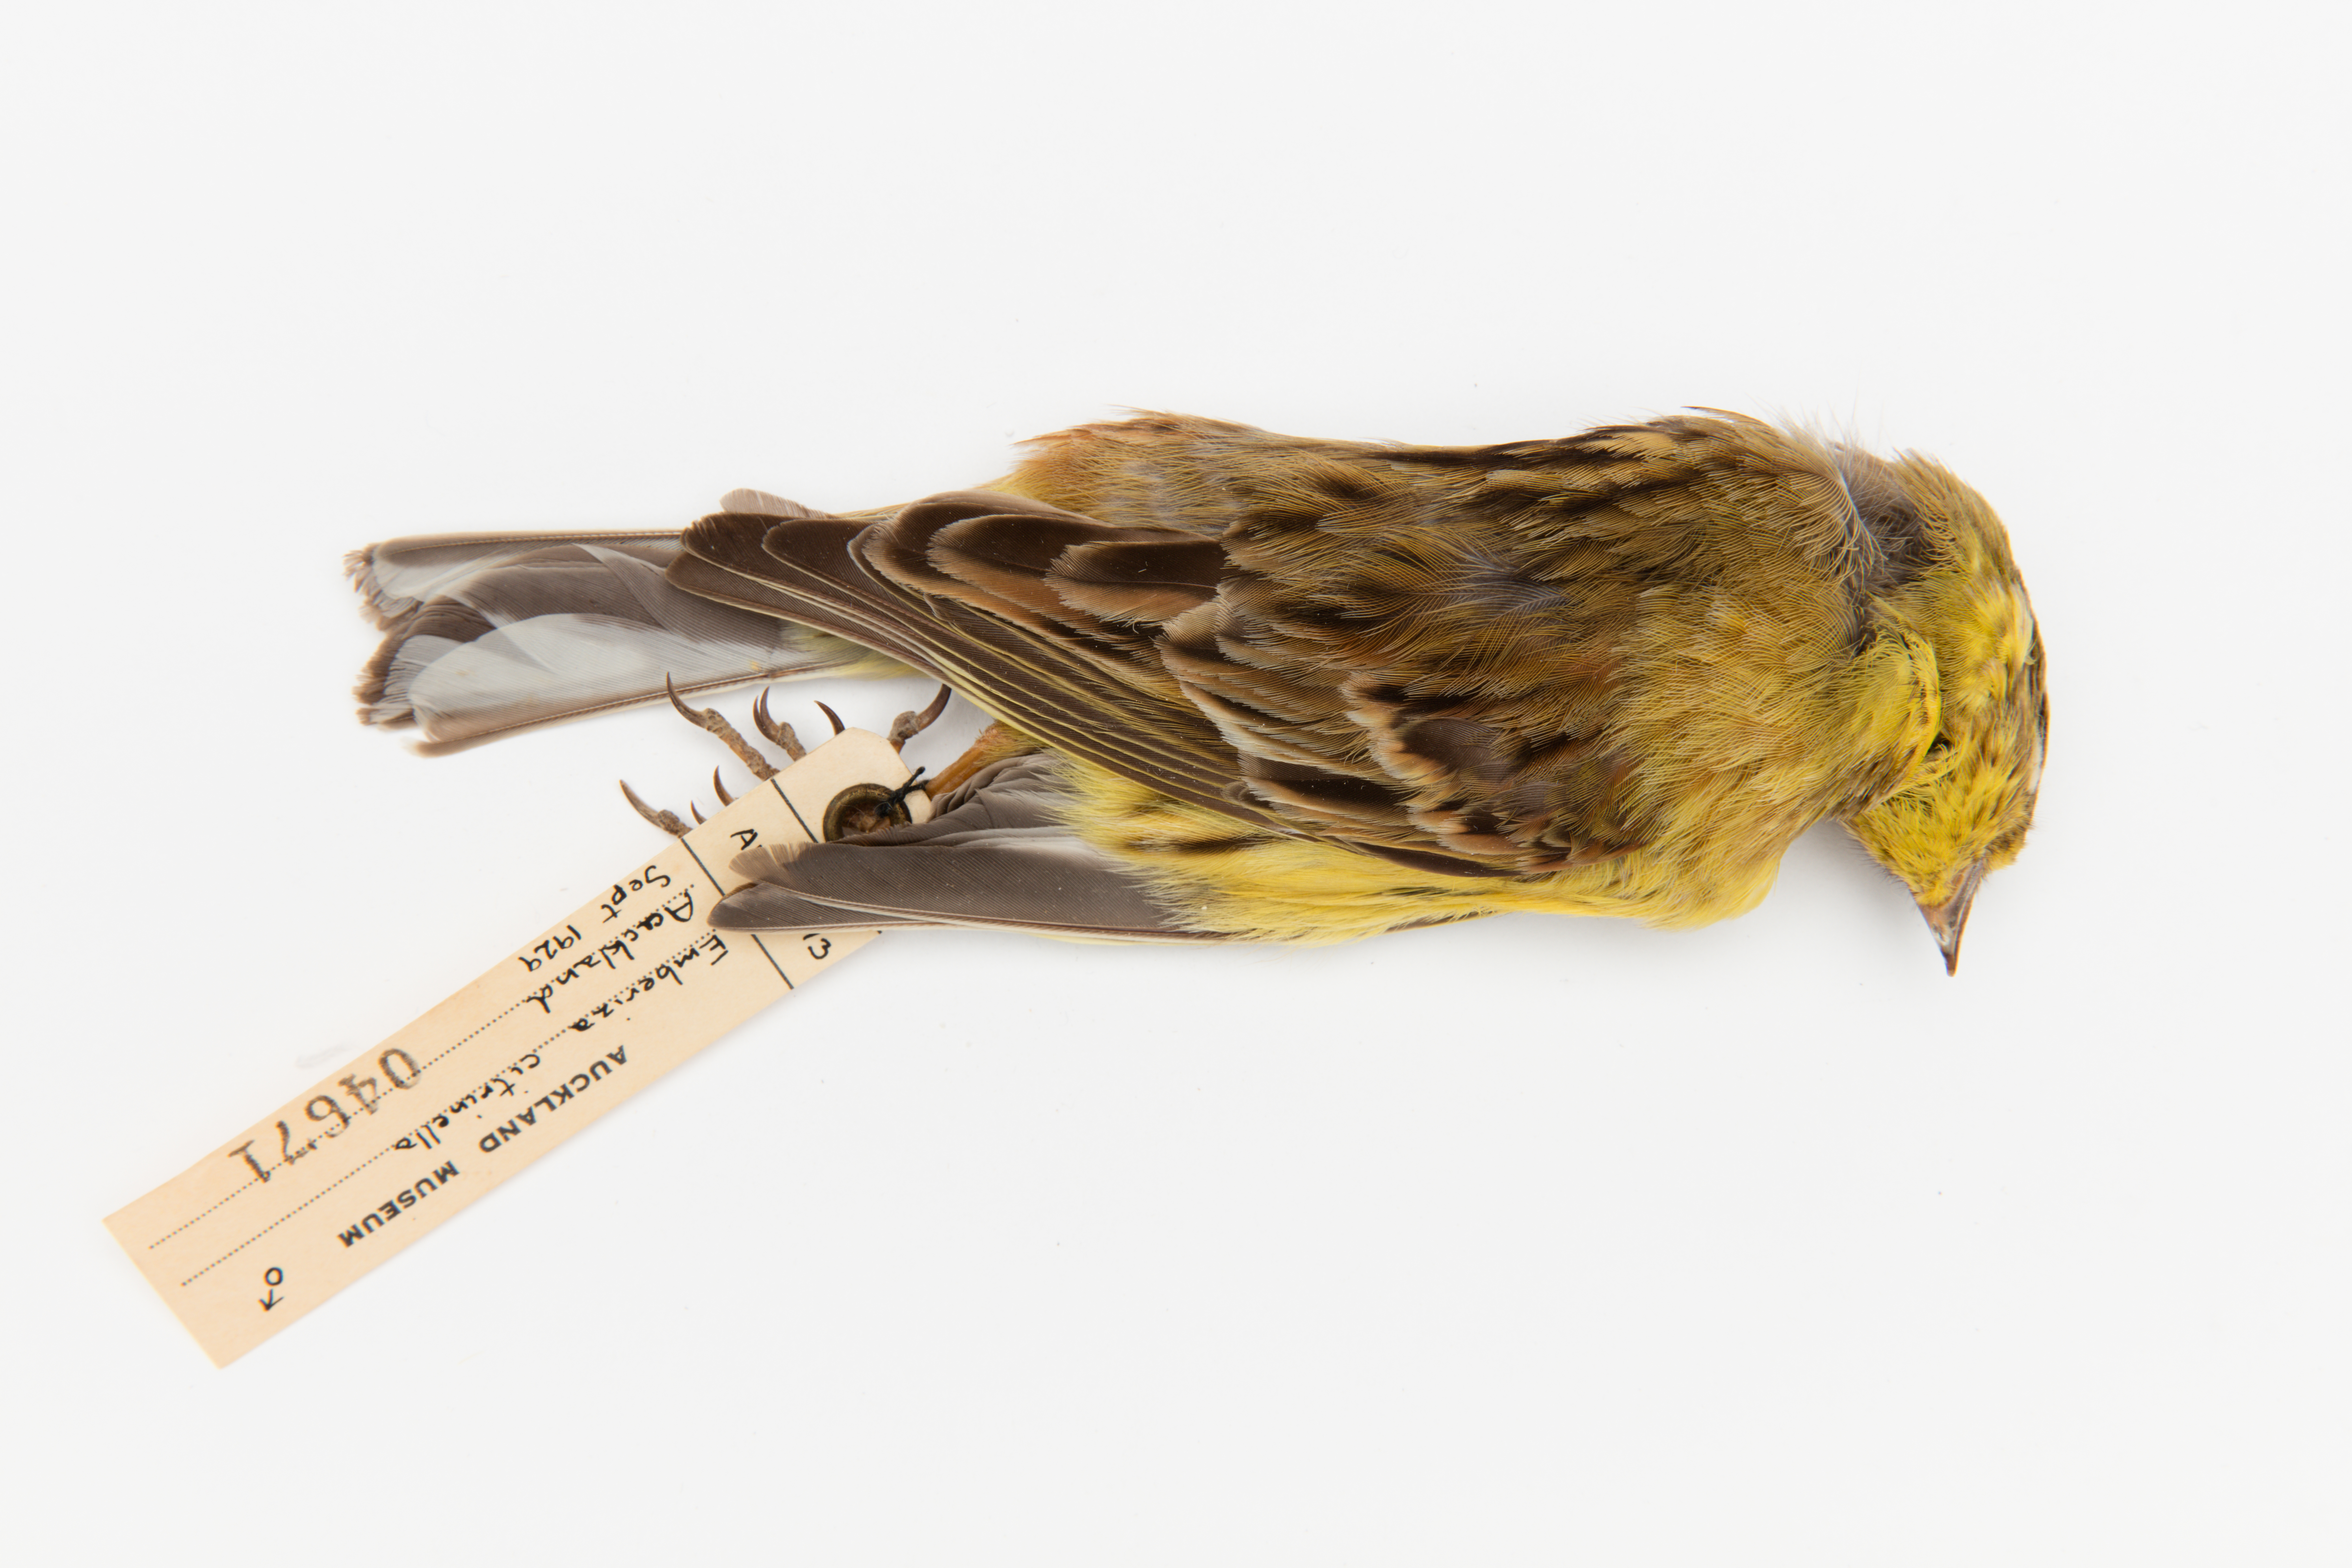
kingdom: Animalia
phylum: Chordata
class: Aves
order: Passeriformes
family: Emberizidae
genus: Emberiza
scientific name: Emberiza citrinella
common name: Yellowhammer
